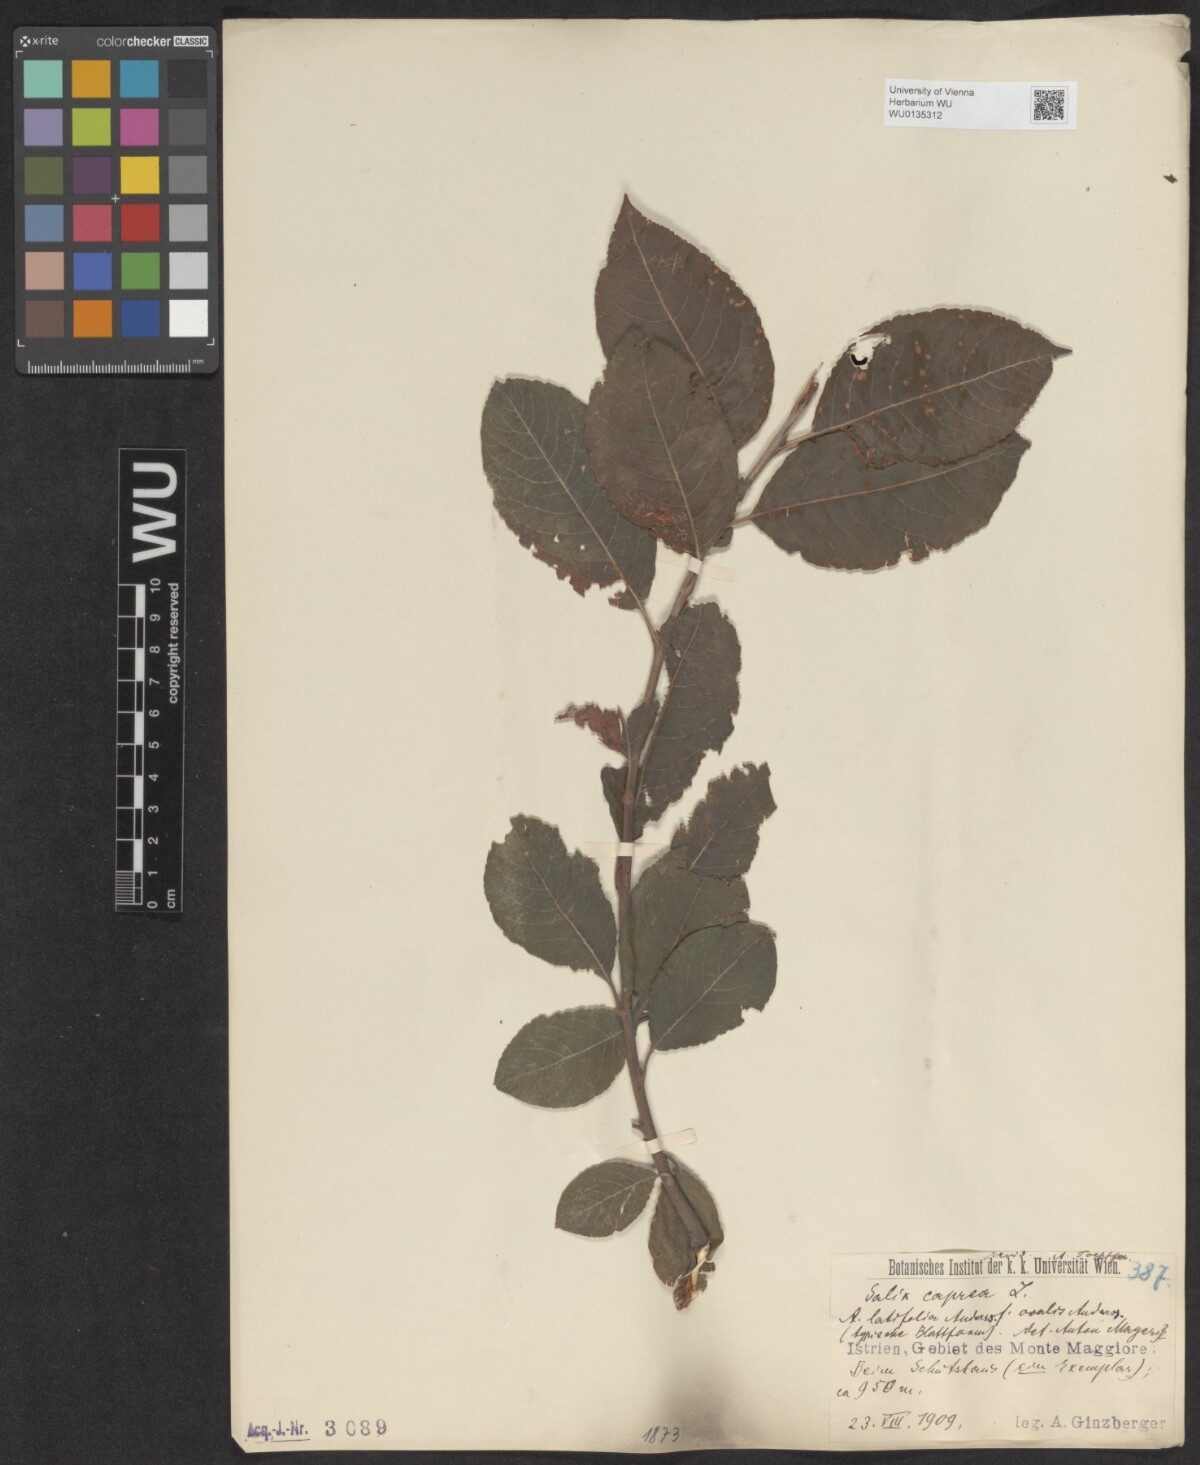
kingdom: Plantae
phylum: Tracheophyta
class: Magnoliopsida
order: Malpighiales
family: Salicaceae
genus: Salix
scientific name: Salix caprea
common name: Goat willow
